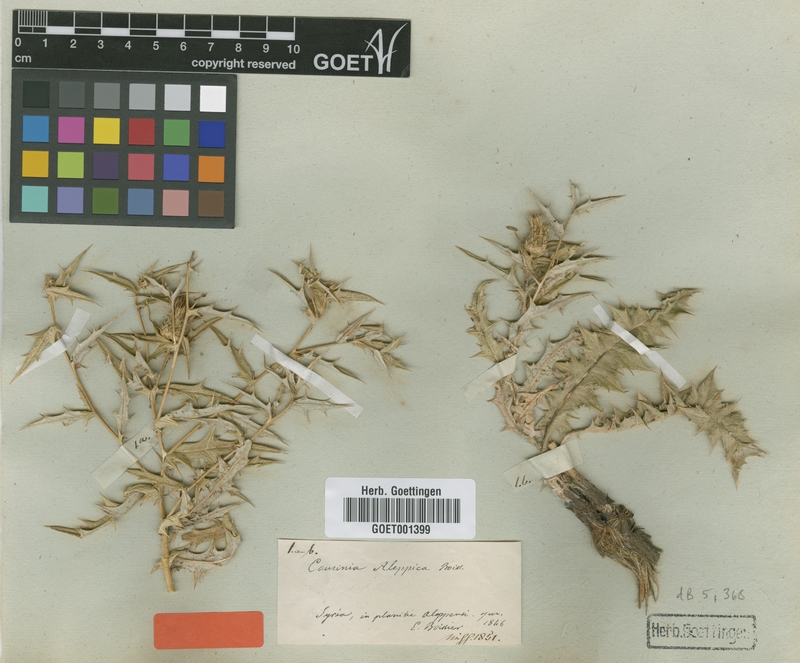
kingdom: Plantae
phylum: Tracheophyta
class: Magnoliopsida
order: Asterales
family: Asteraceae
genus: Cousinia
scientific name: Cousinia aleppica
